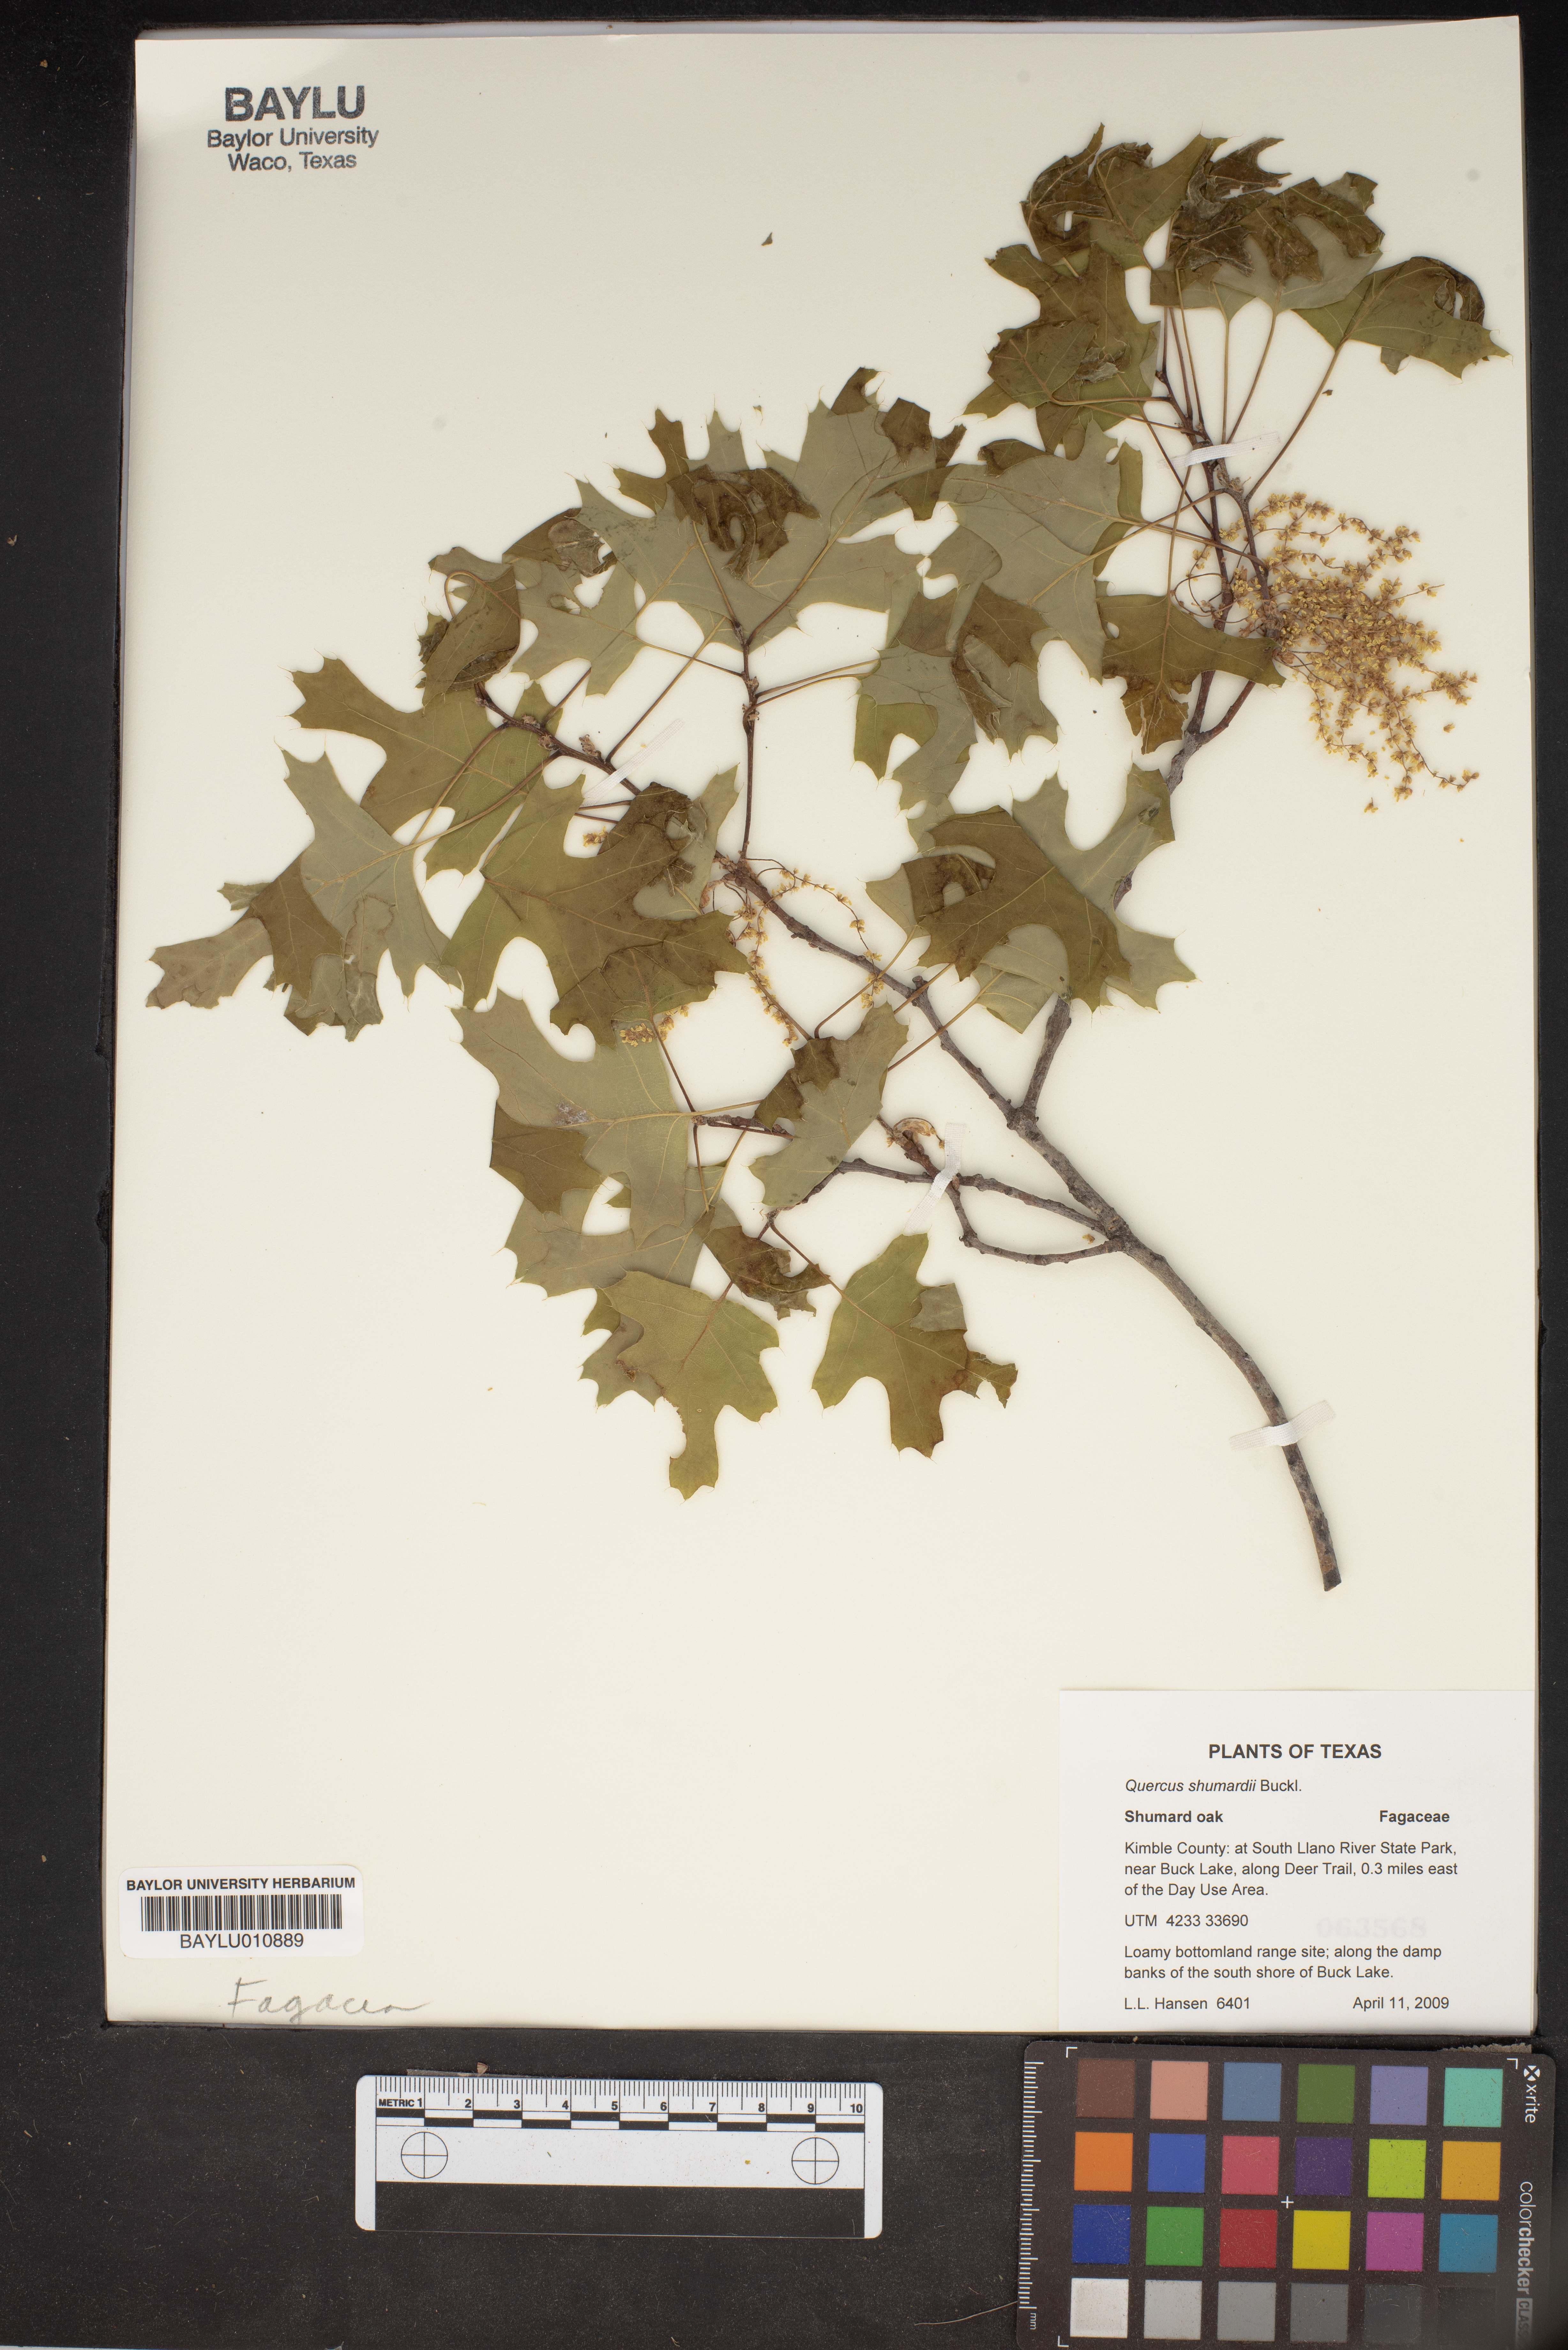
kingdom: Plantae
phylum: Tracheophyta
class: Magnoliopsida
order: Fagales
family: Fagaceae
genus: Quercus
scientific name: Quercus shumardii
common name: Shumard oak
